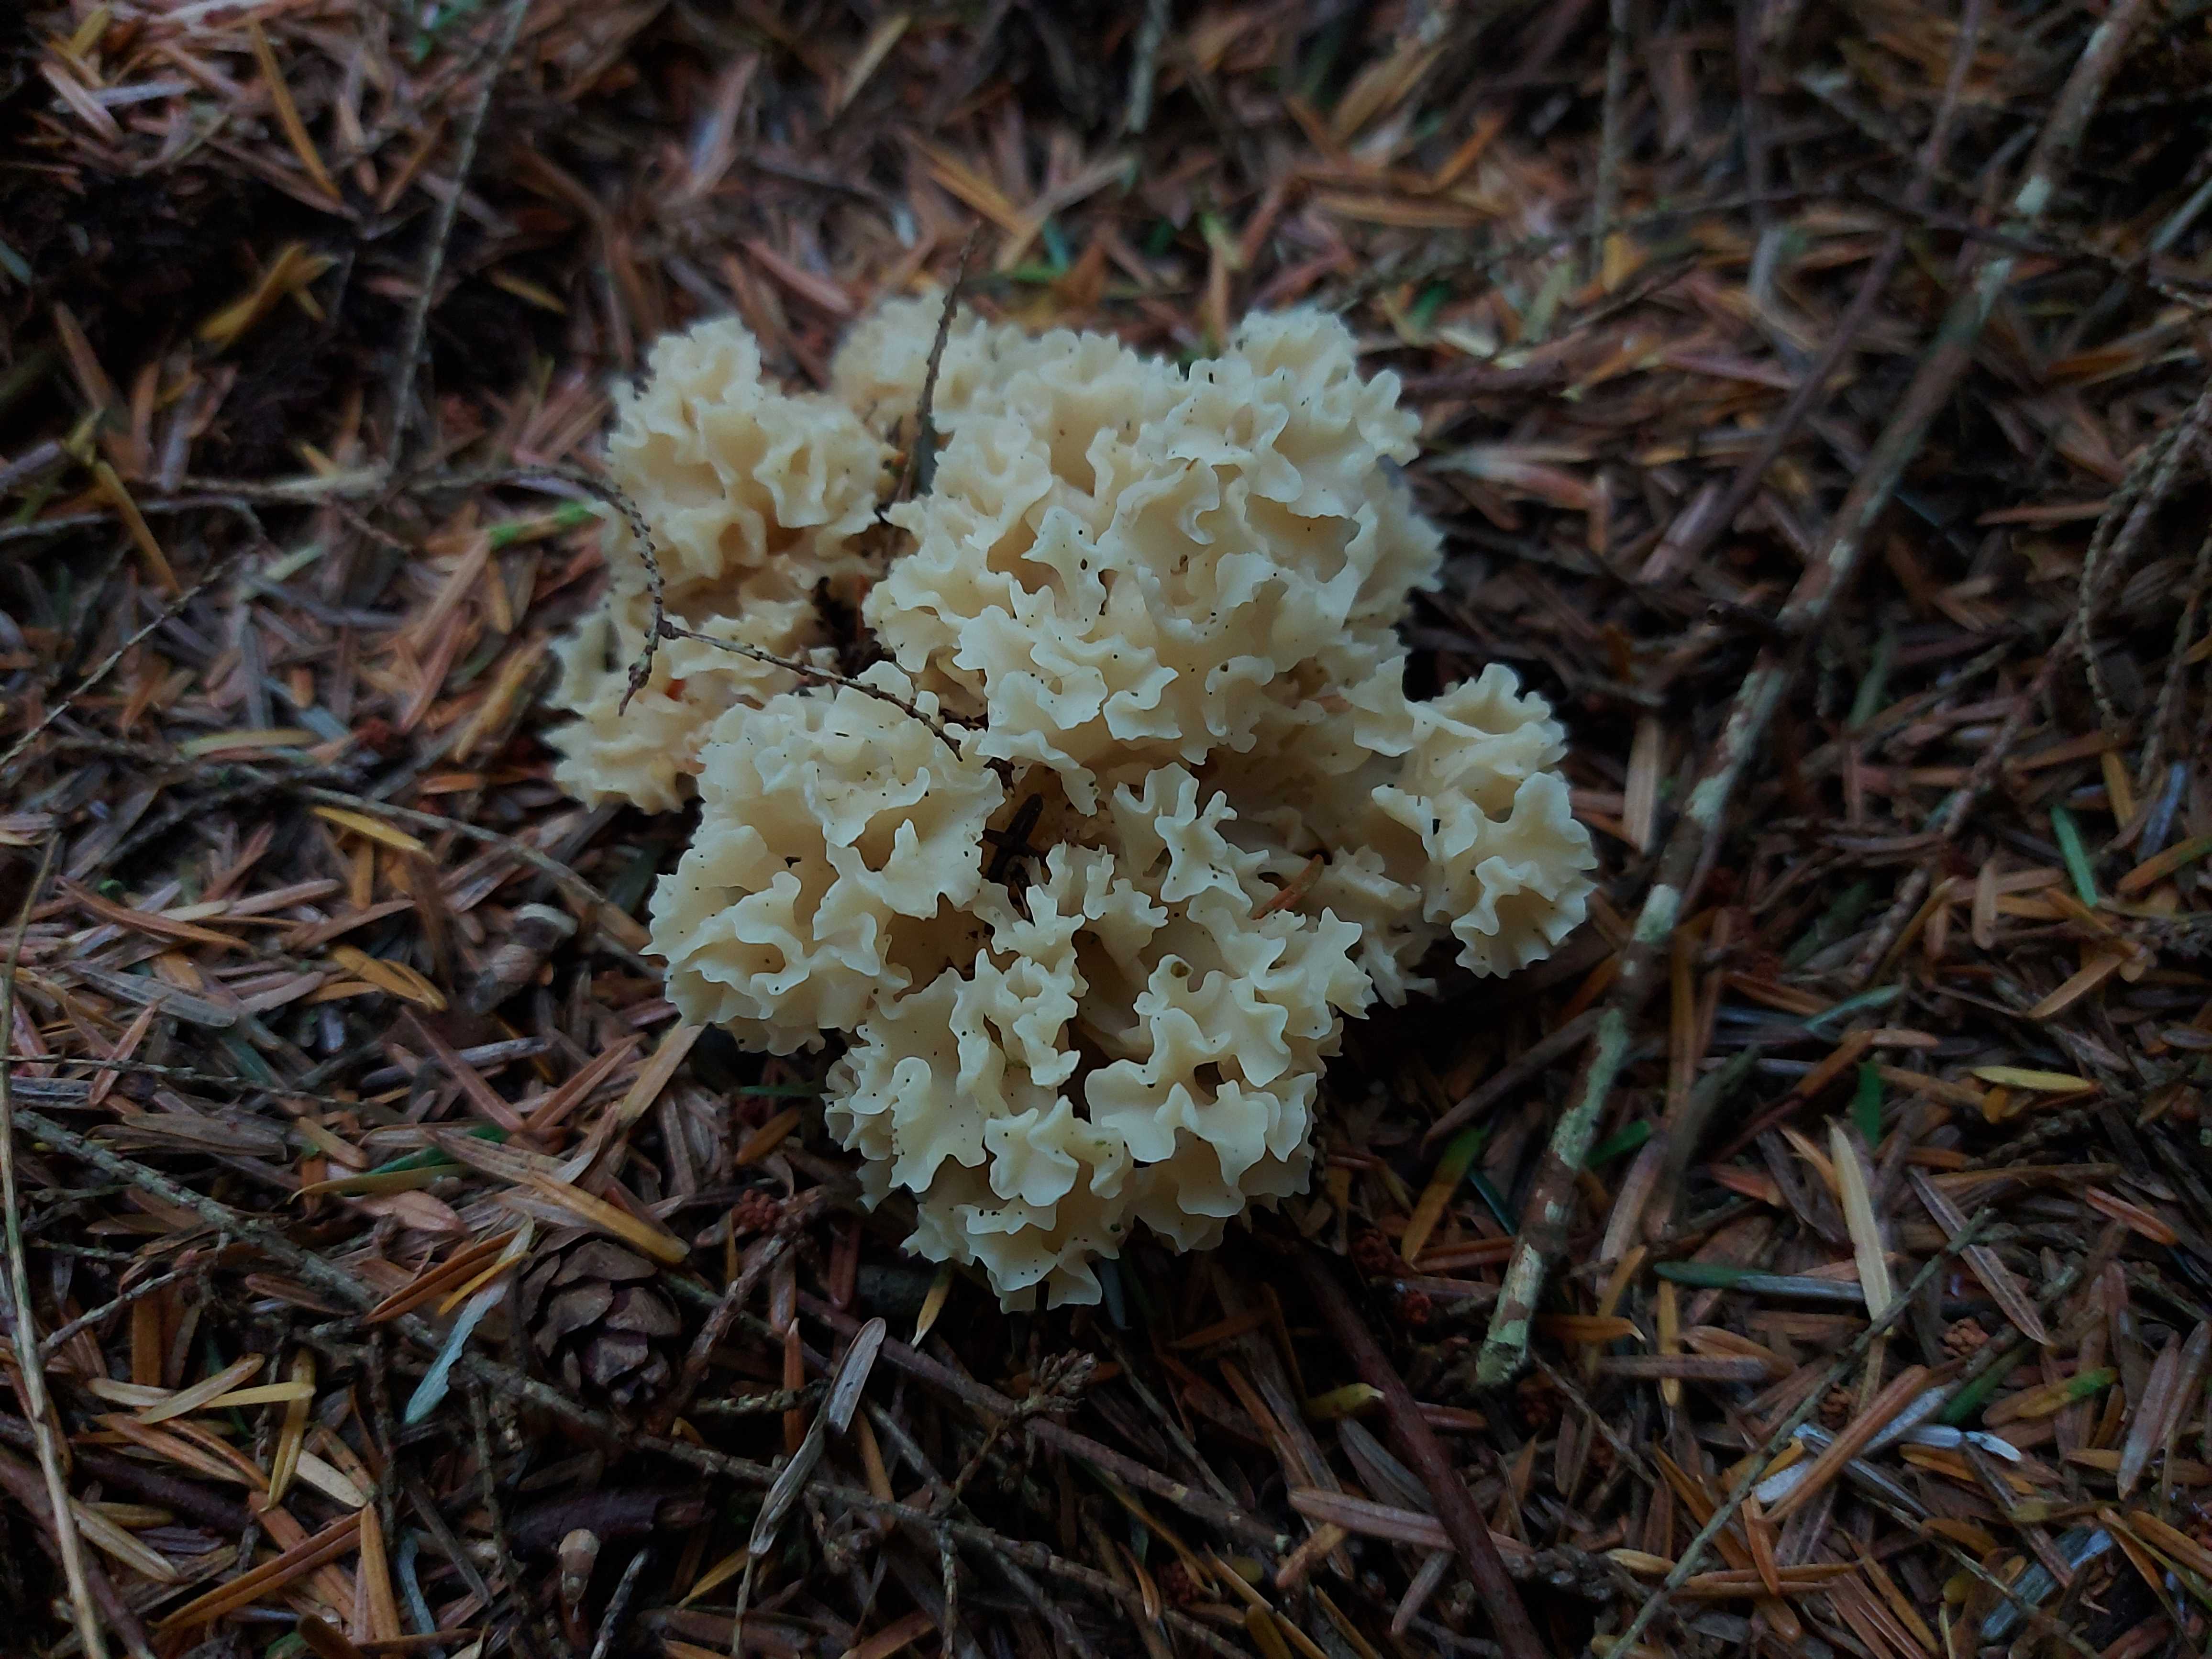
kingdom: Fungi
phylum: Basidiomycota
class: Agaricomycetes
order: Polyporales
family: Sparassidaceae
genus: Sparassis
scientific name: Sparassis crispa
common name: kruset blomkålssvamp
